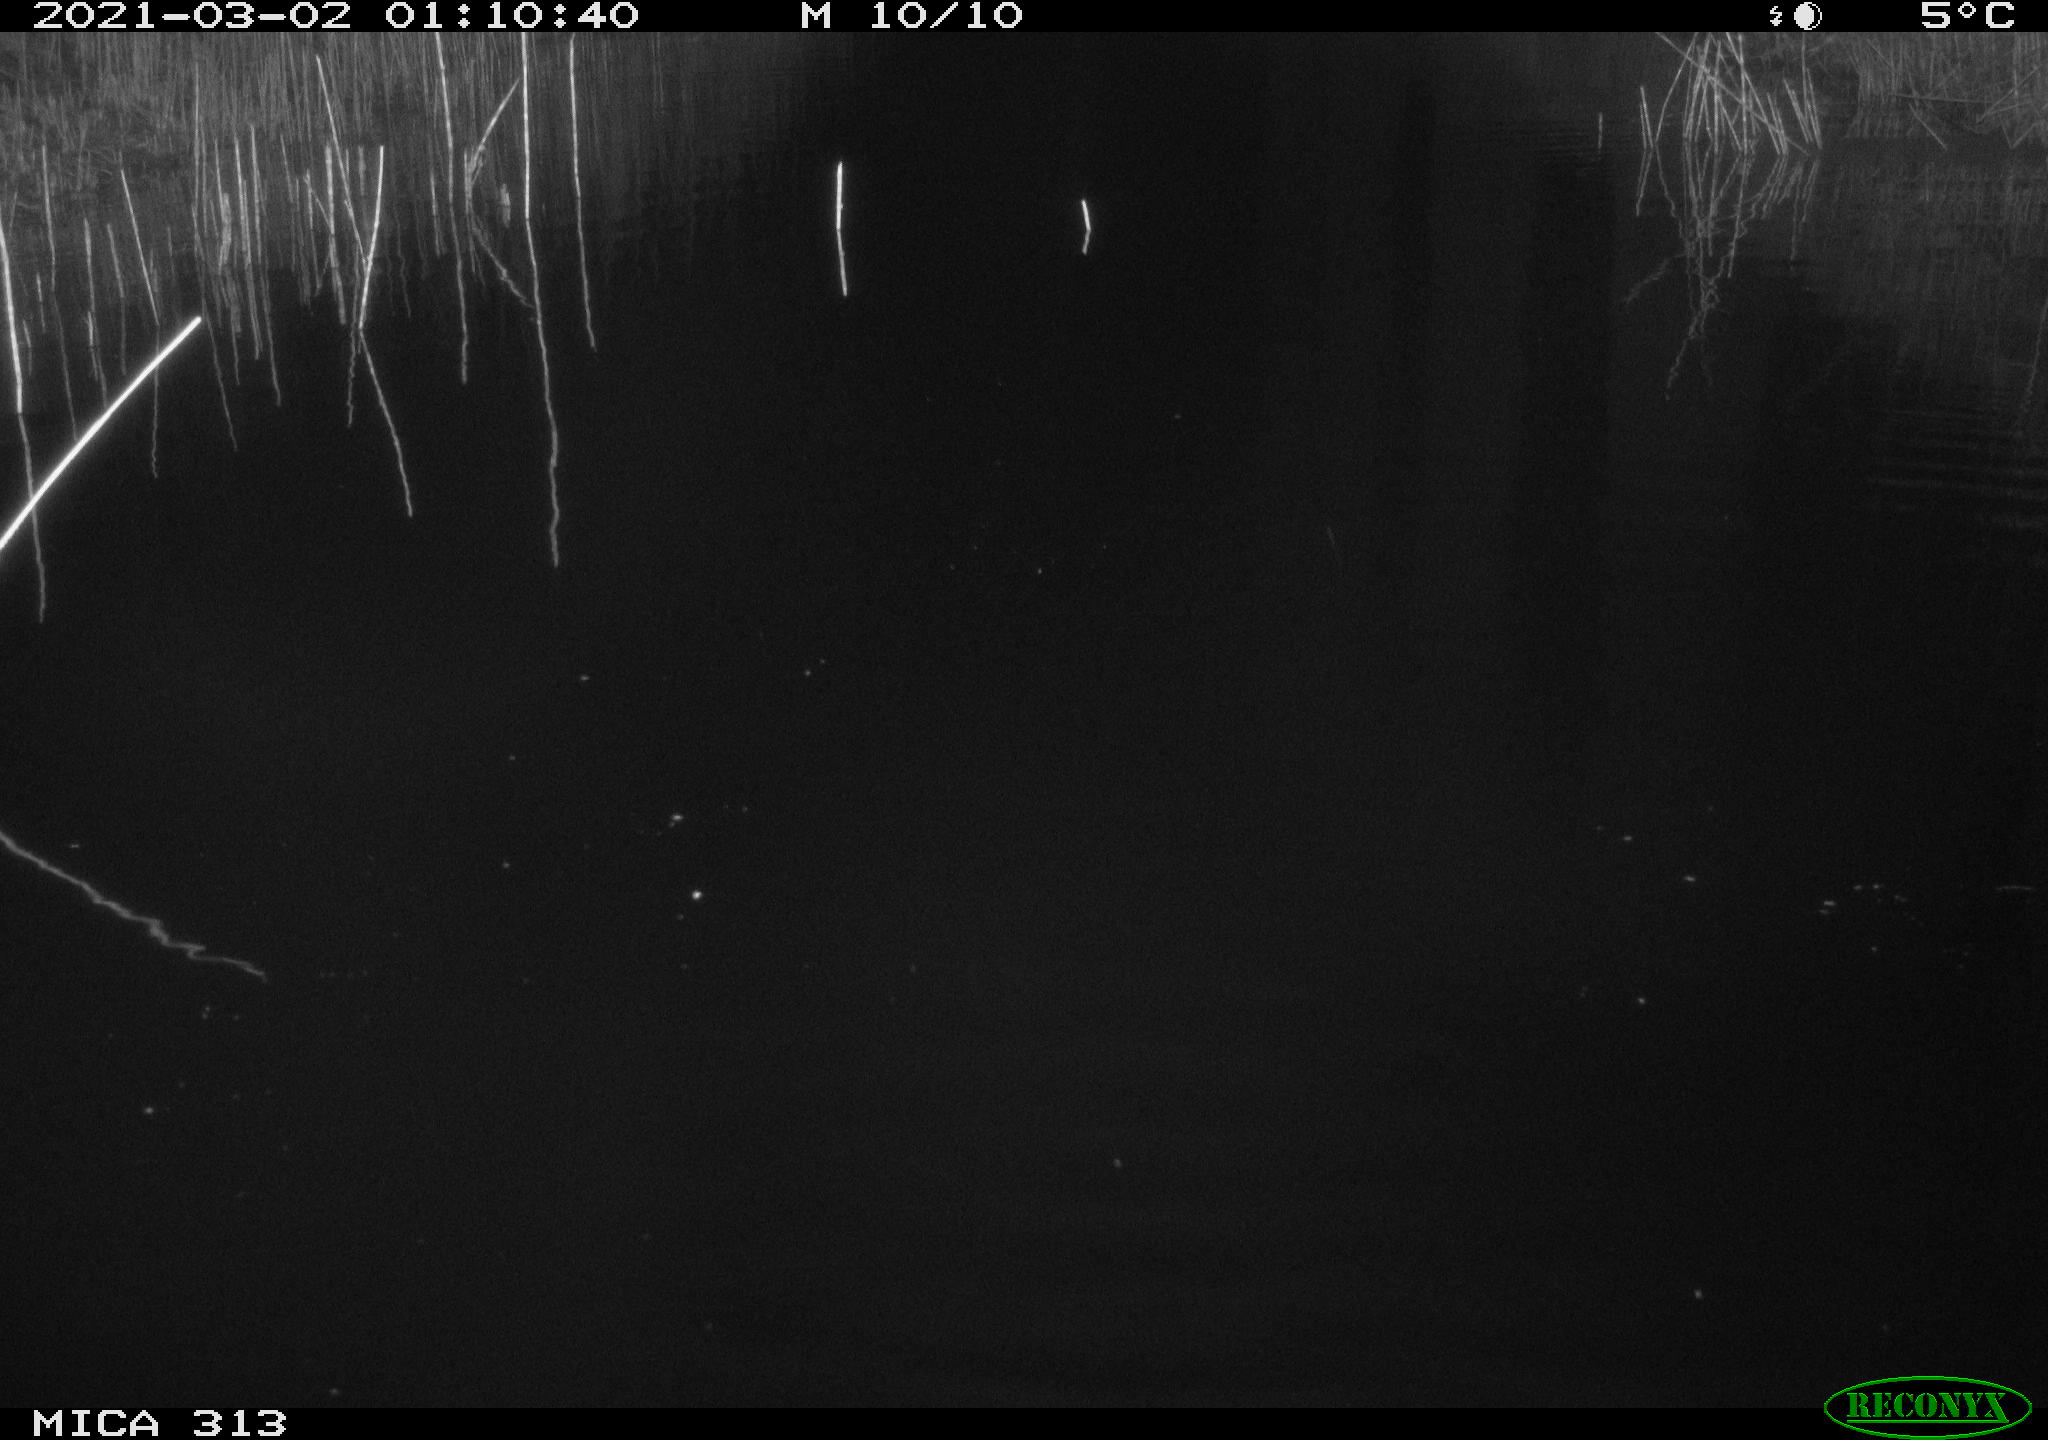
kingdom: Animalia
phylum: Chordata
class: Aves
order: Anseriformes
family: Anatidae
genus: Anas
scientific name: Anas
